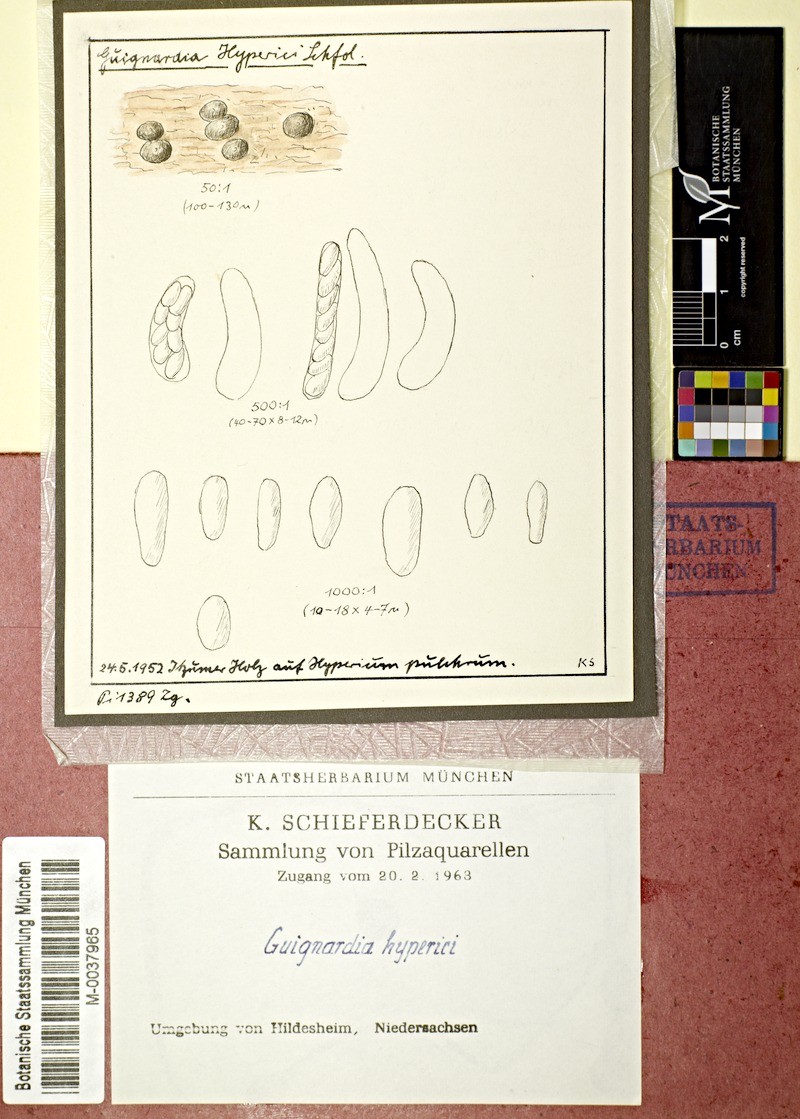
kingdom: Fungi
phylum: Ascomycota
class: Dothideomycetes
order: Botryosphaeriales
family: Phyllostictaceae
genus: Guignardia
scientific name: Guignardia
